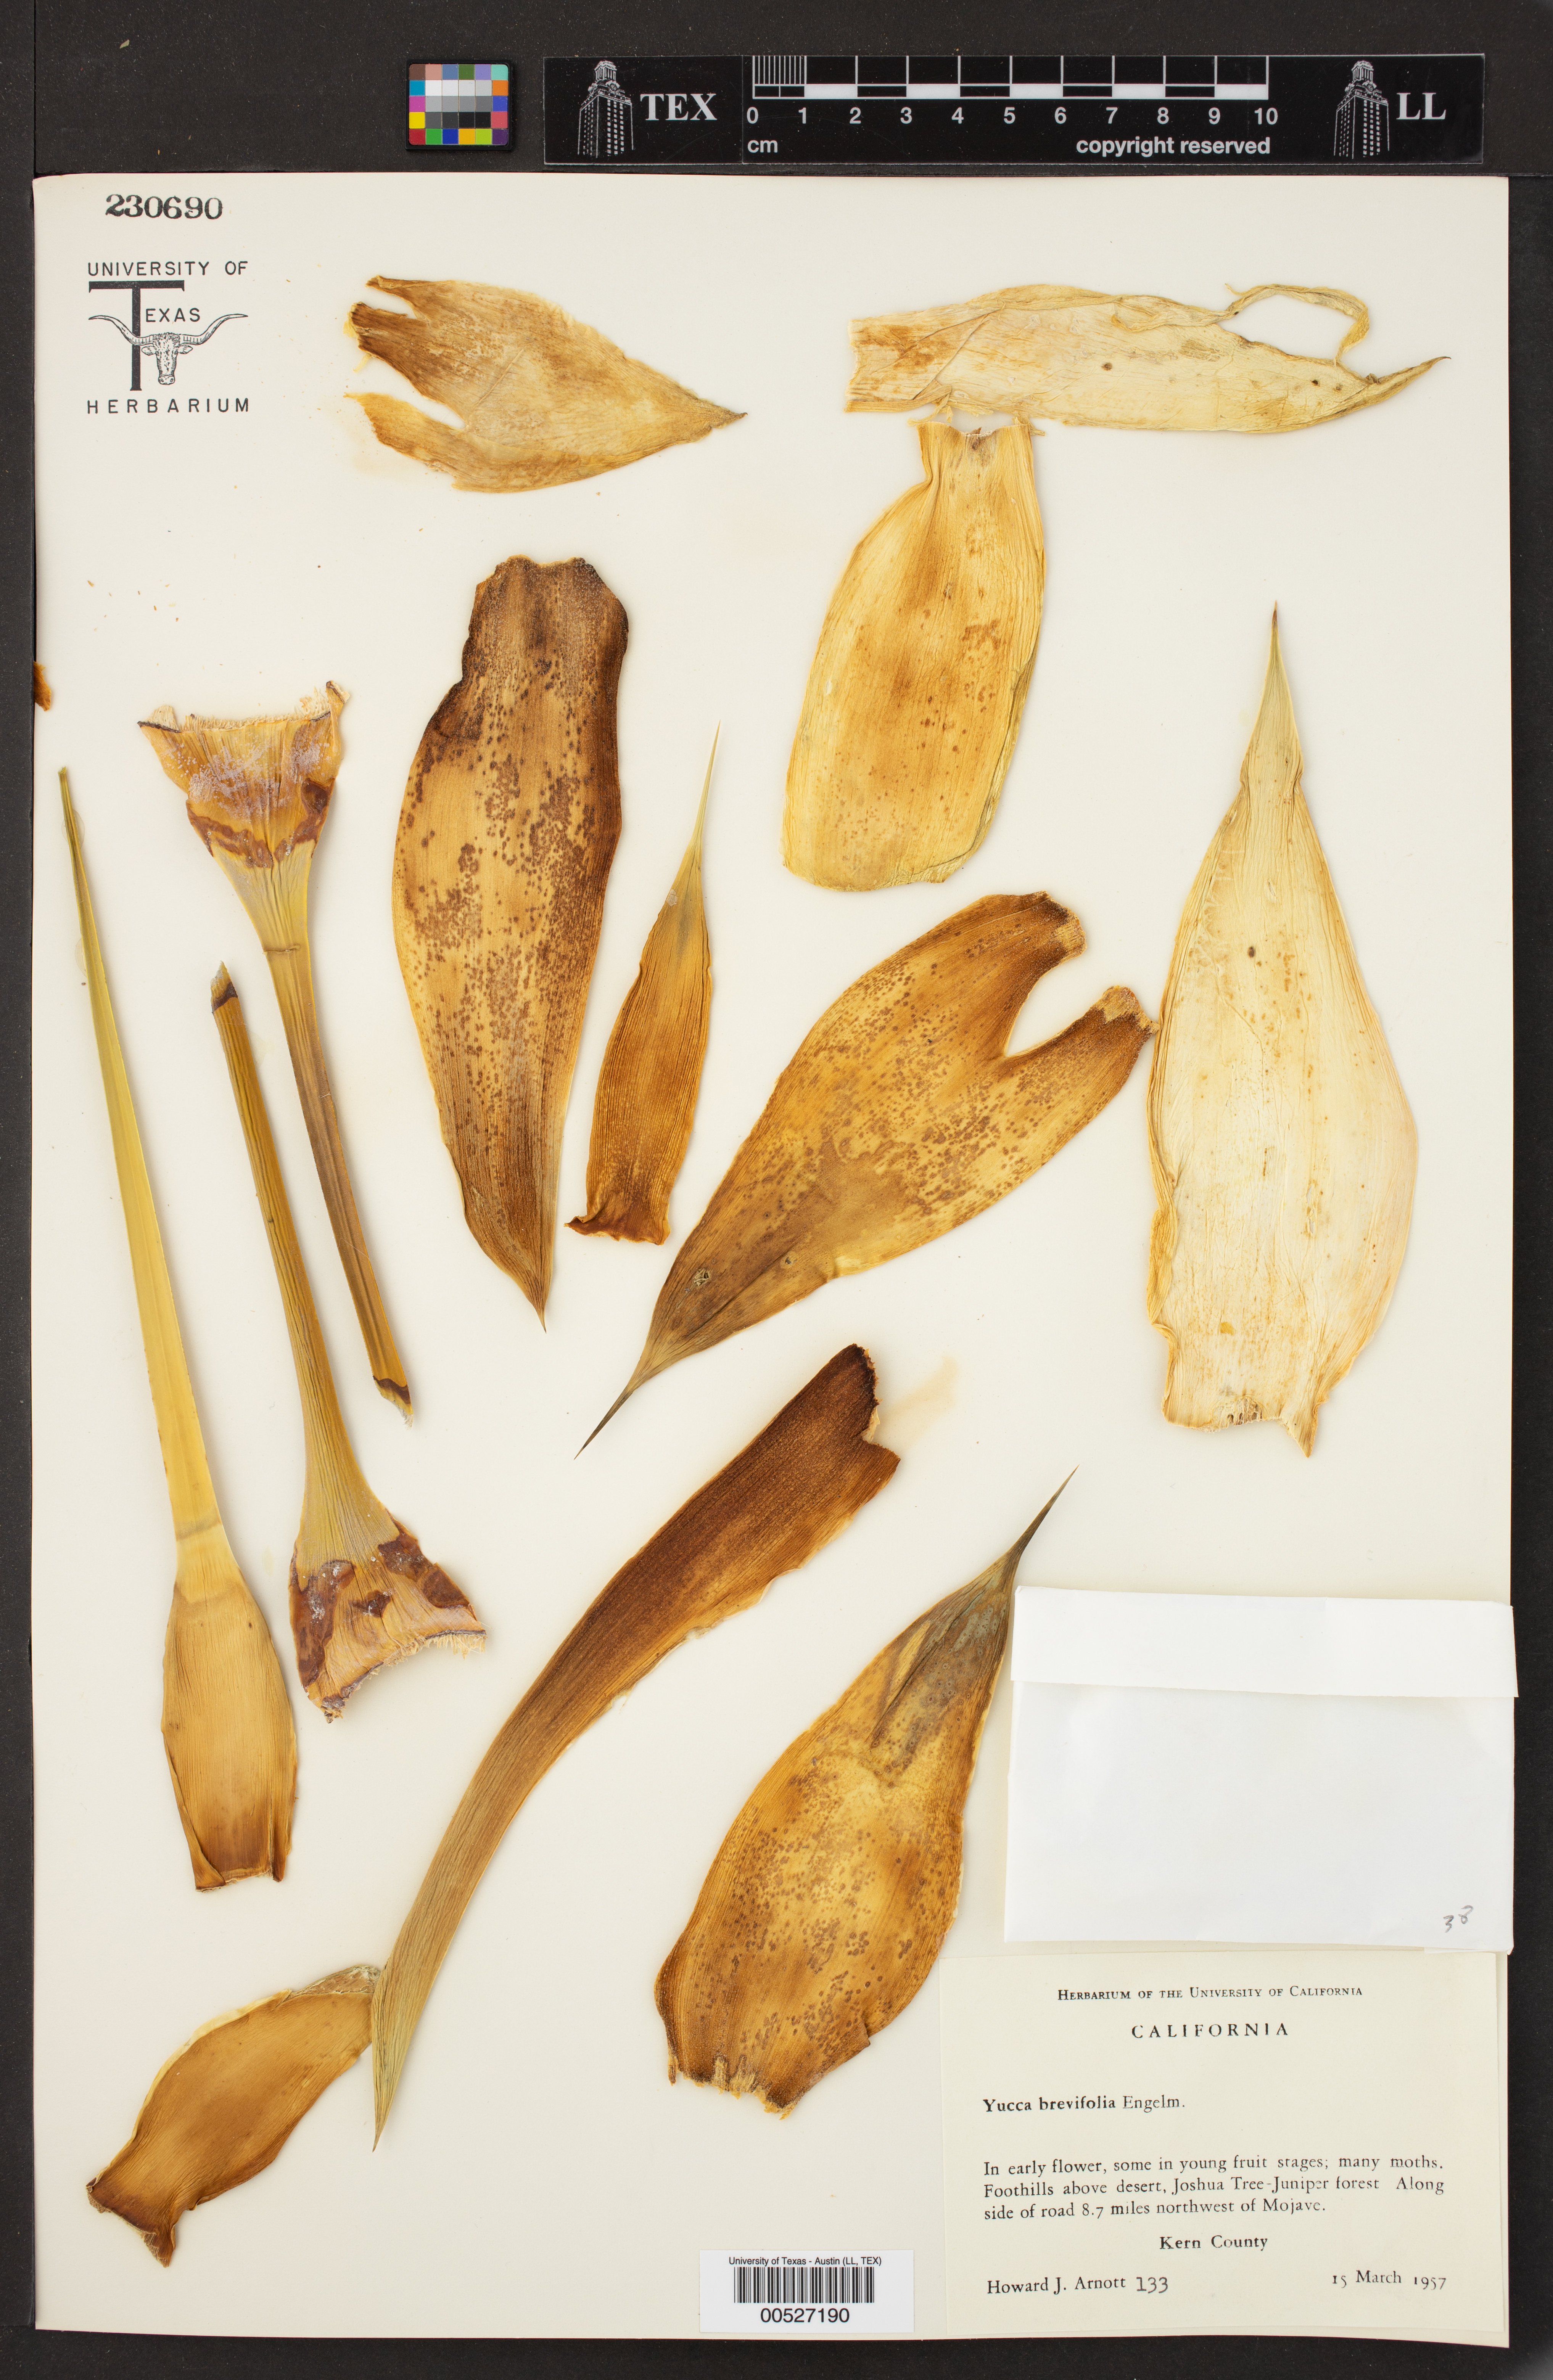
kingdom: Plantae
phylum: Tracheophyta
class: Liliopsida
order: Asparagales
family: Asparagaceae
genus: Yucca
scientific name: Yucca brevifolia
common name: Joshua tree
